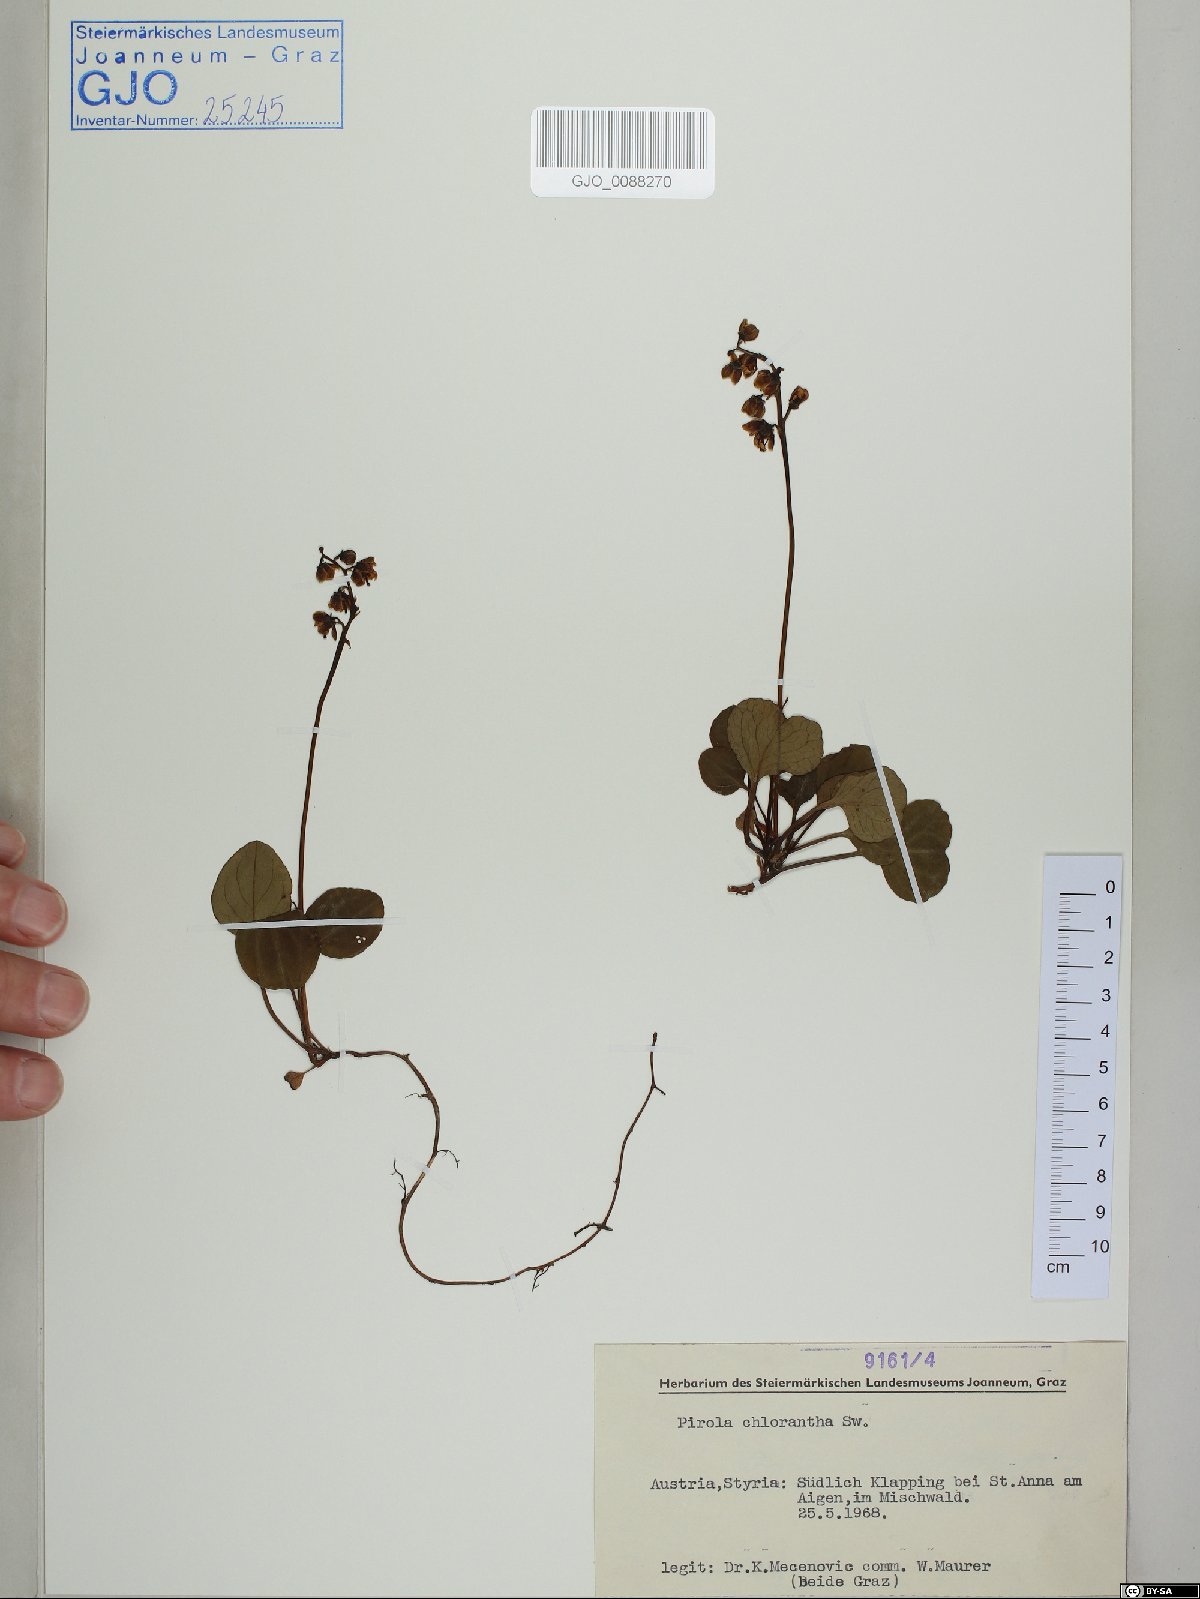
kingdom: Plantae
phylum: Tracheophyta
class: Magnoliopsida
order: Ericales
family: Ericaceae
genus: Pyrola
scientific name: Pyrola chlorantha
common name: Green wintergreen
